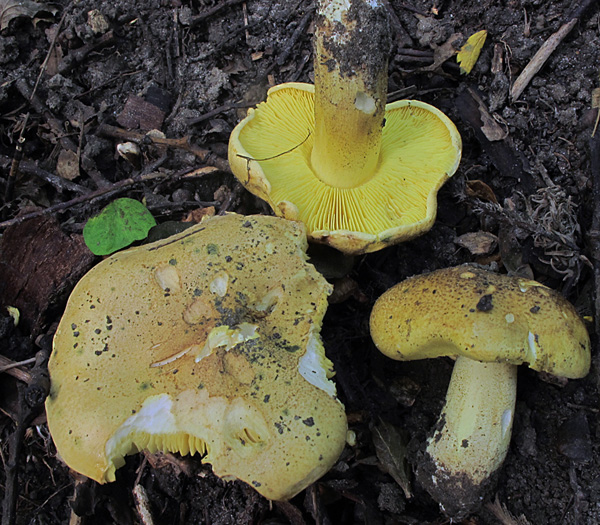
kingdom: Fungi
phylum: Basidiomycota
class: Agaricomycetes
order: Agaricales
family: Tricholomataceae
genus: Tricholoma
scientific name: Tricholoma frondosae
